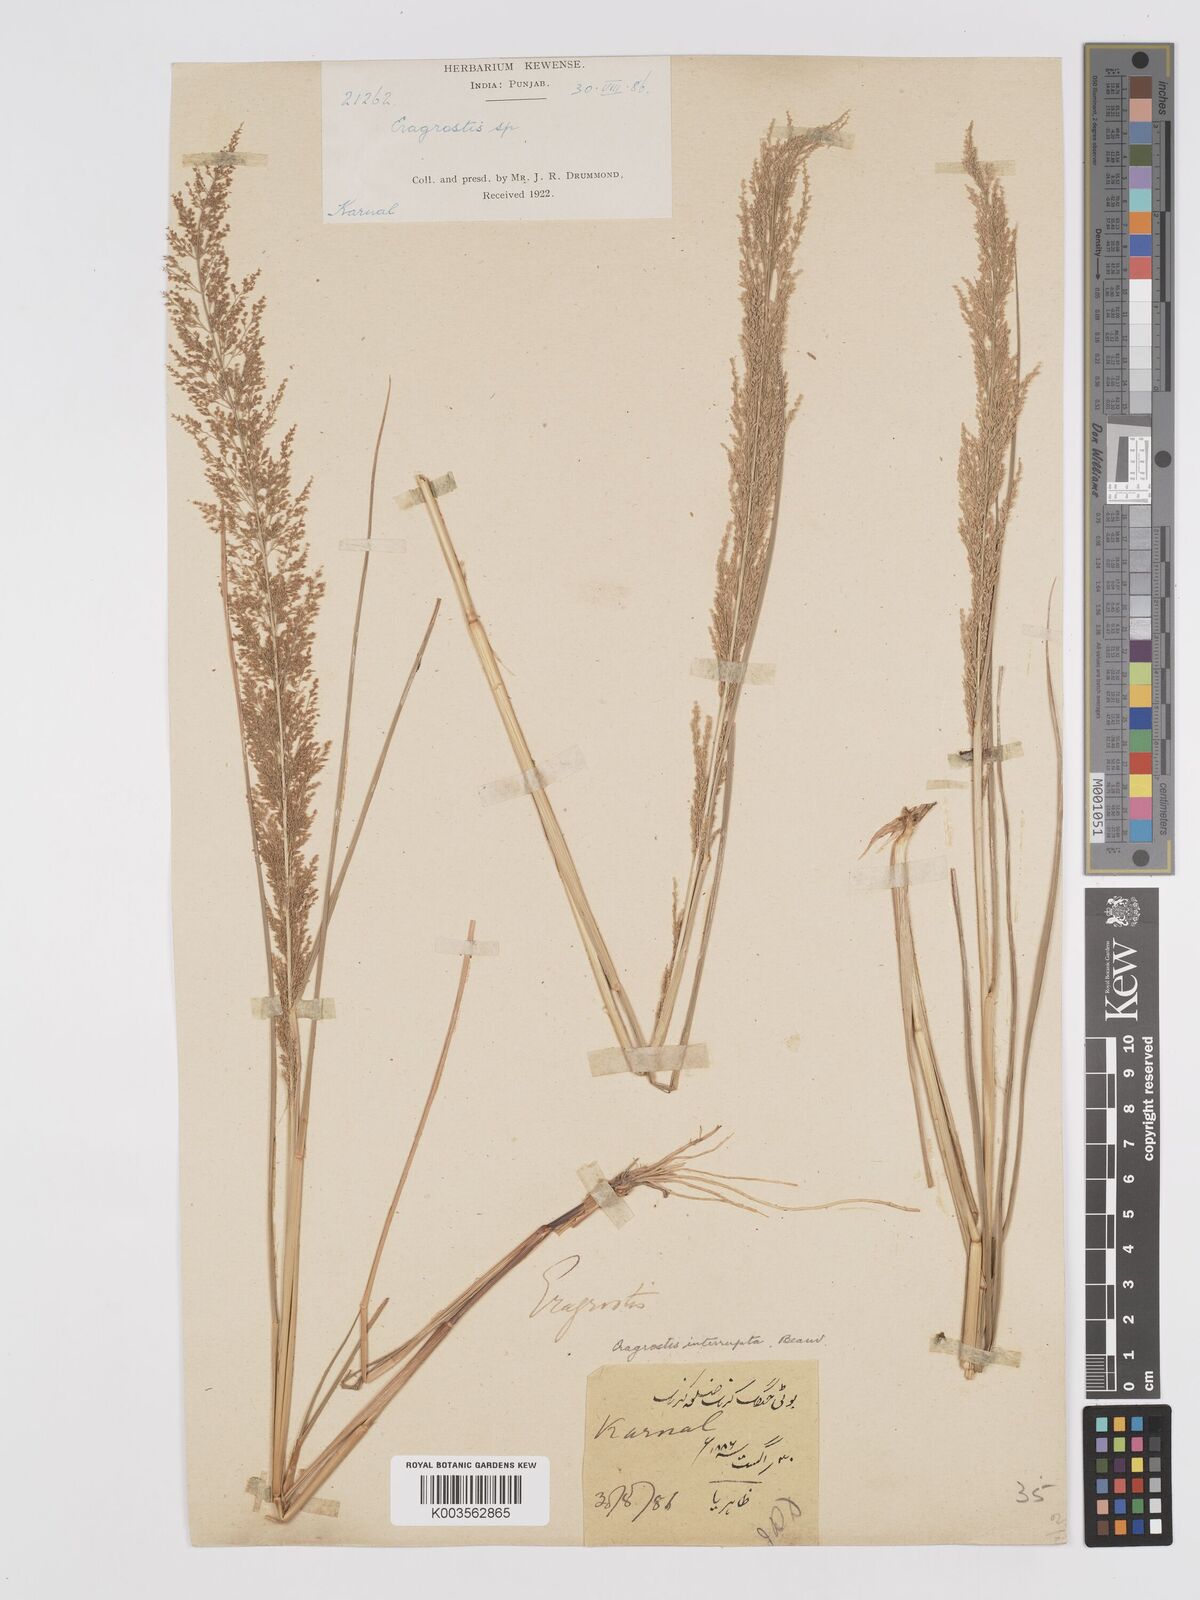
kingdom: Plantae
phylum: Tracheophyta
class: Liliopsida
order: Poales
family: Poaceae
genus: Eragrostis
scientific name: Eragrostis japonica
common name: Pond lovegrass
